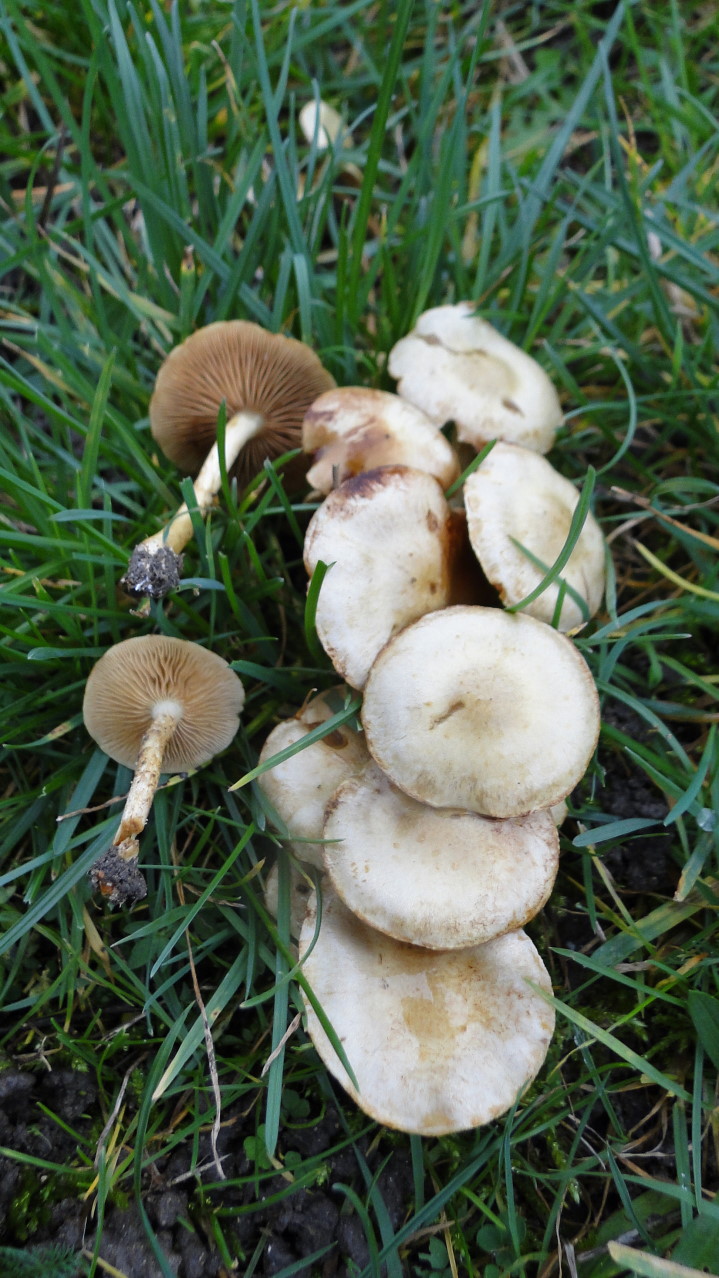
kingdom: Fungi
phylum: Basidiomycota
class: Agaricomycetes
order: Agaricales
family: Strophariaceae
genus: Pholiota
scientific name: Pholiota gummosa
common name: grøngul skælhat
